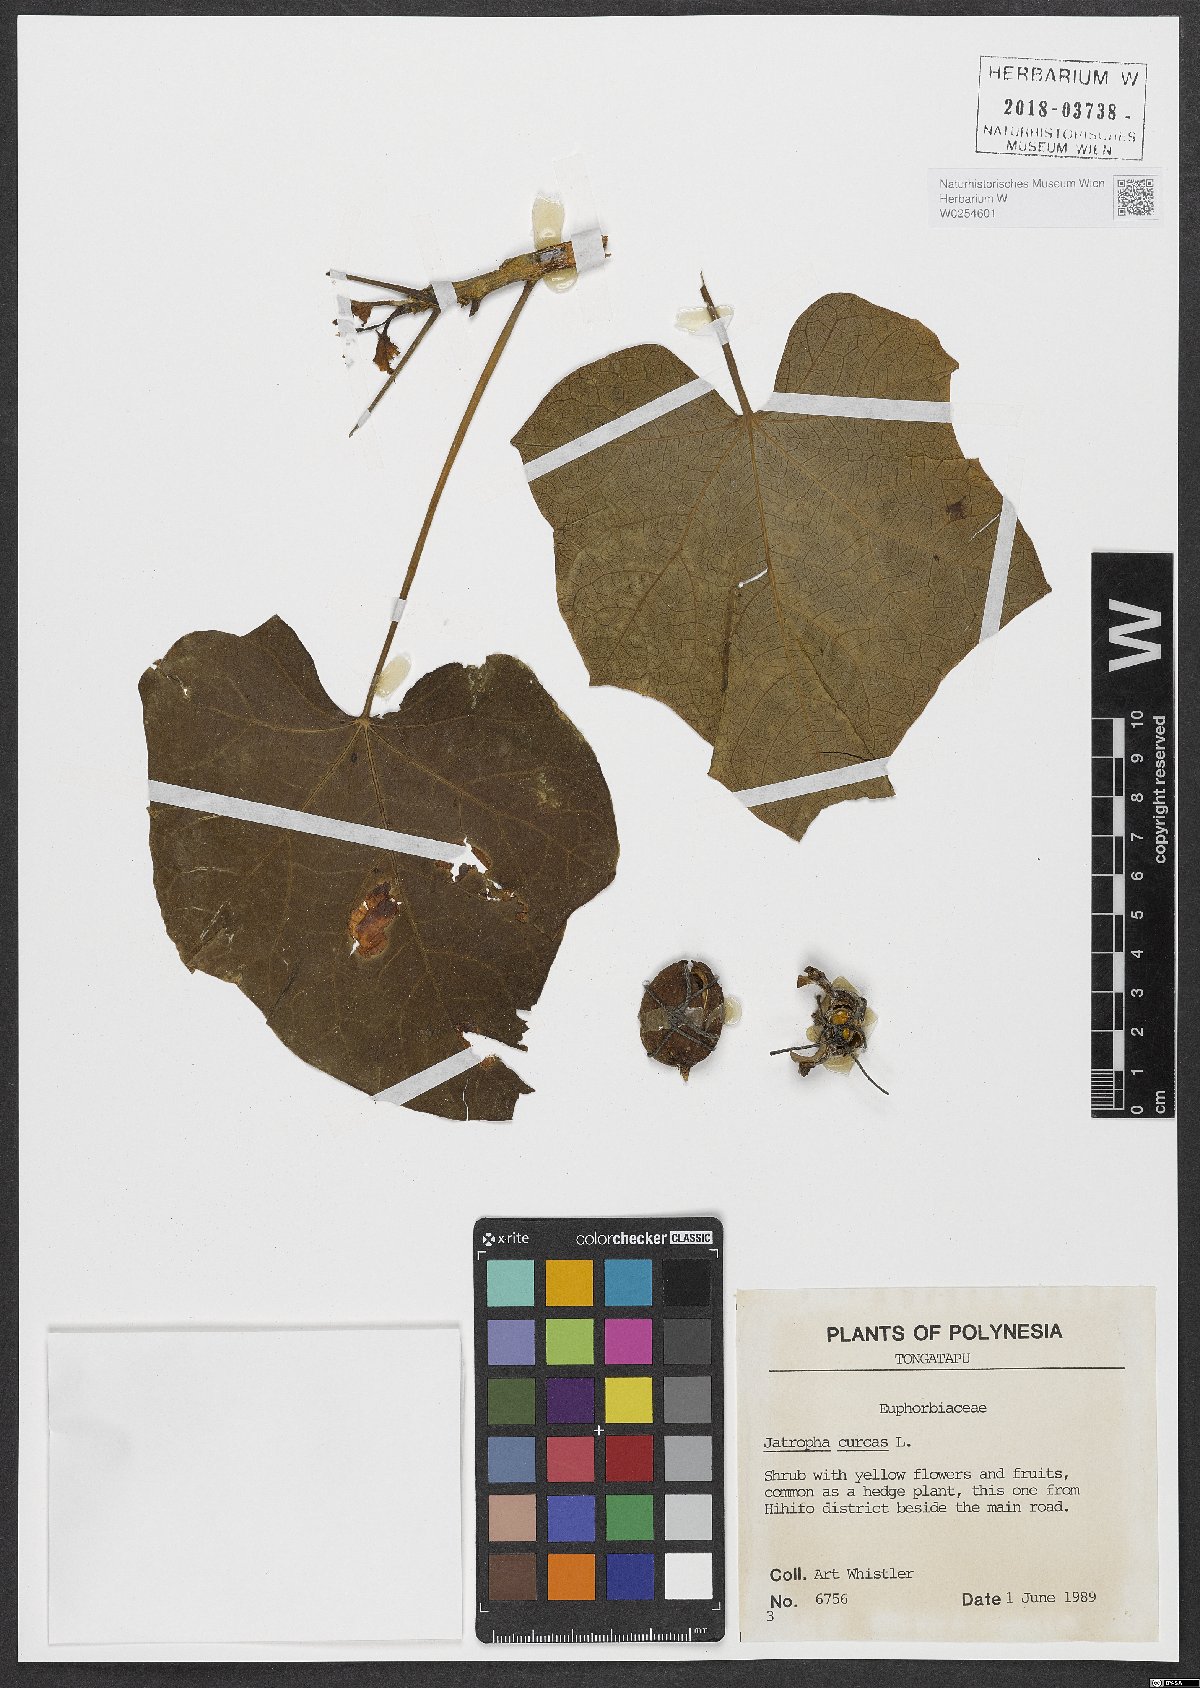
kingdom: Plantae
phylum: Tracheophyta
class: Magnoliopsida
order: Malpighiales
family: Euphorbiaceae
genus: Jatropha
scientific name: Jatropha curcas
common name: Barbados nut
